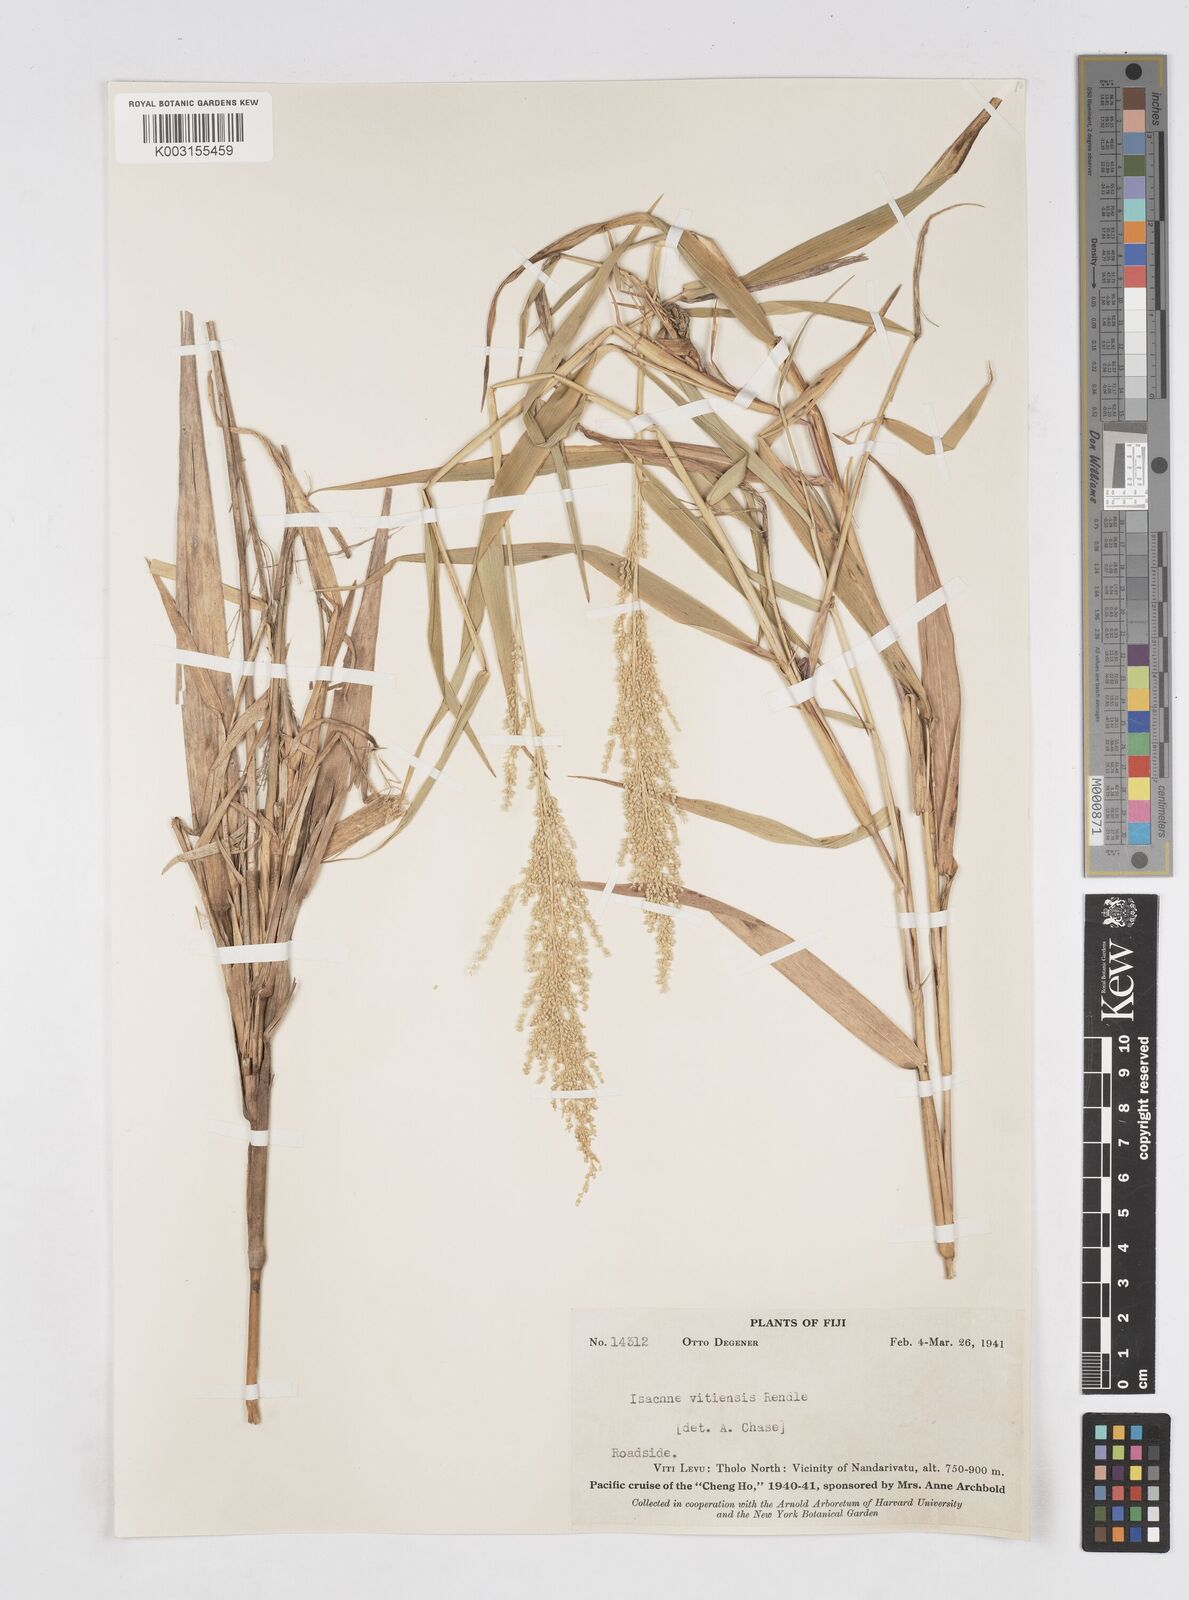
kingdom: Plantae
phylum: Tracheophyta
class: Liliopsida
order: Poales
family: Poaceae
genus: Isachne
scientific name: Isachne vitiensis
